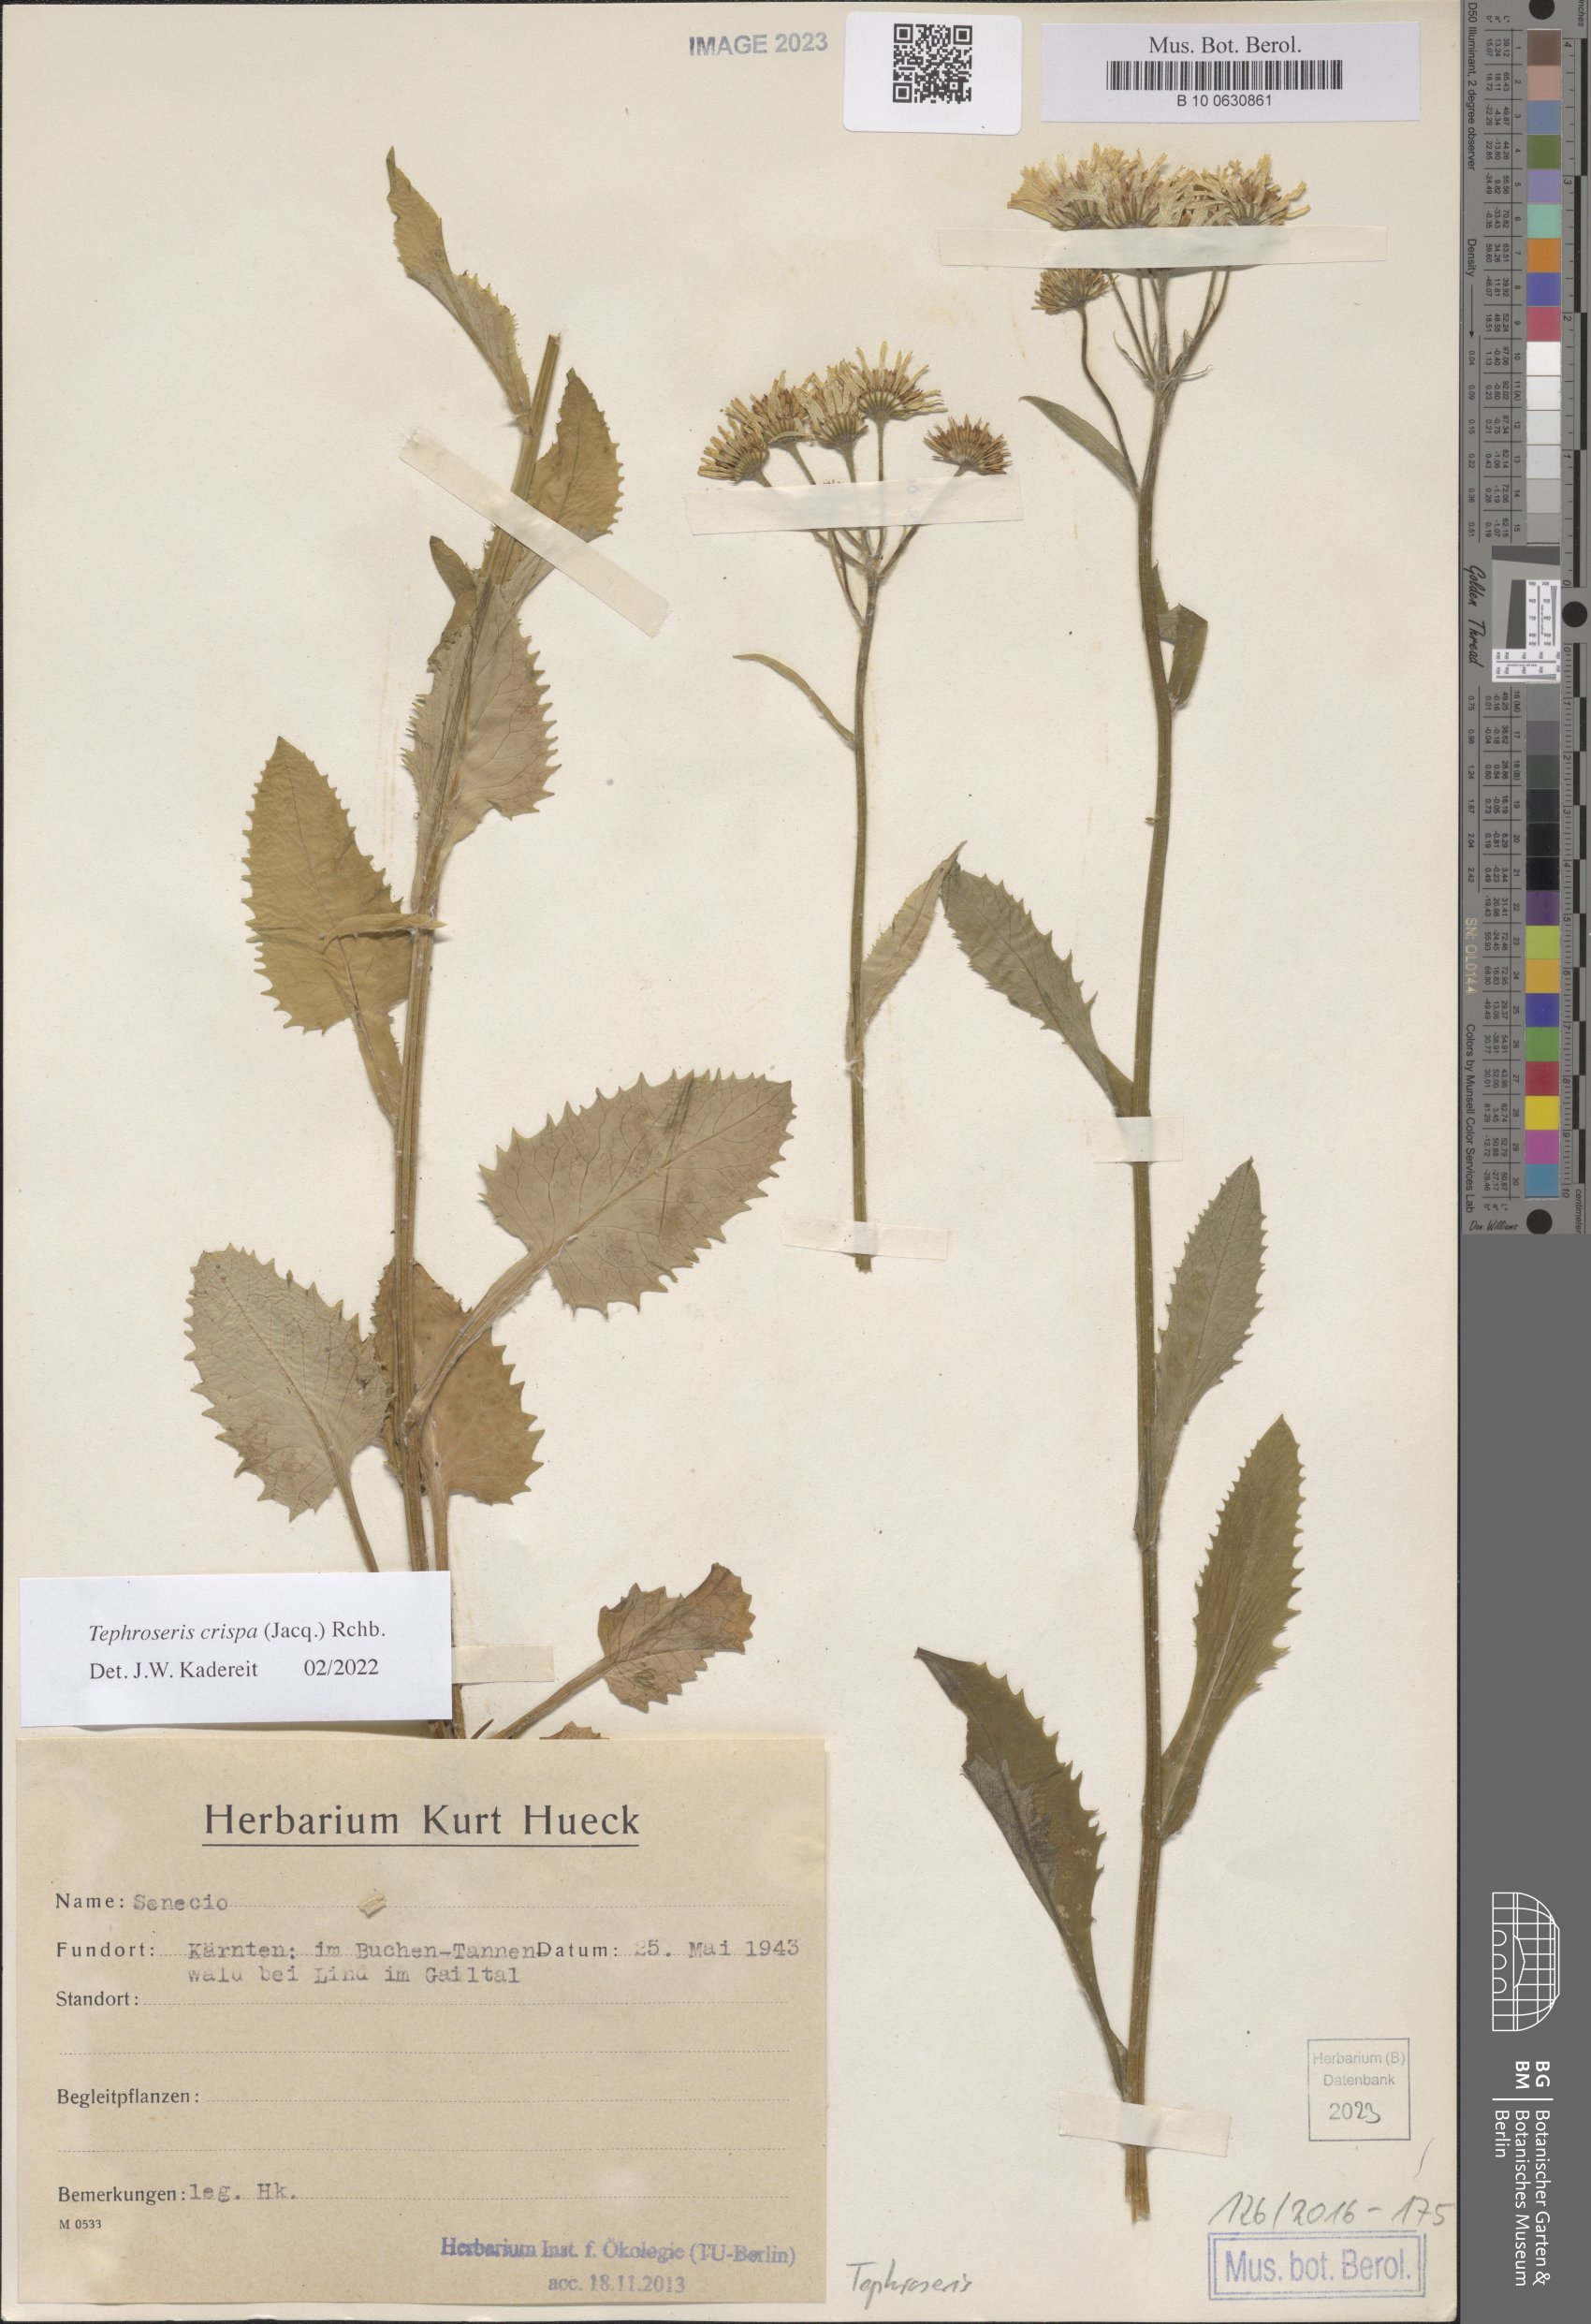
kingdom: Plantae
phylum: Tracheophyta
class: Magnoliopsida
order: Asterales
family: Asteraceae
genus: Tephroseris
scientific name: Tephroseris crispa
